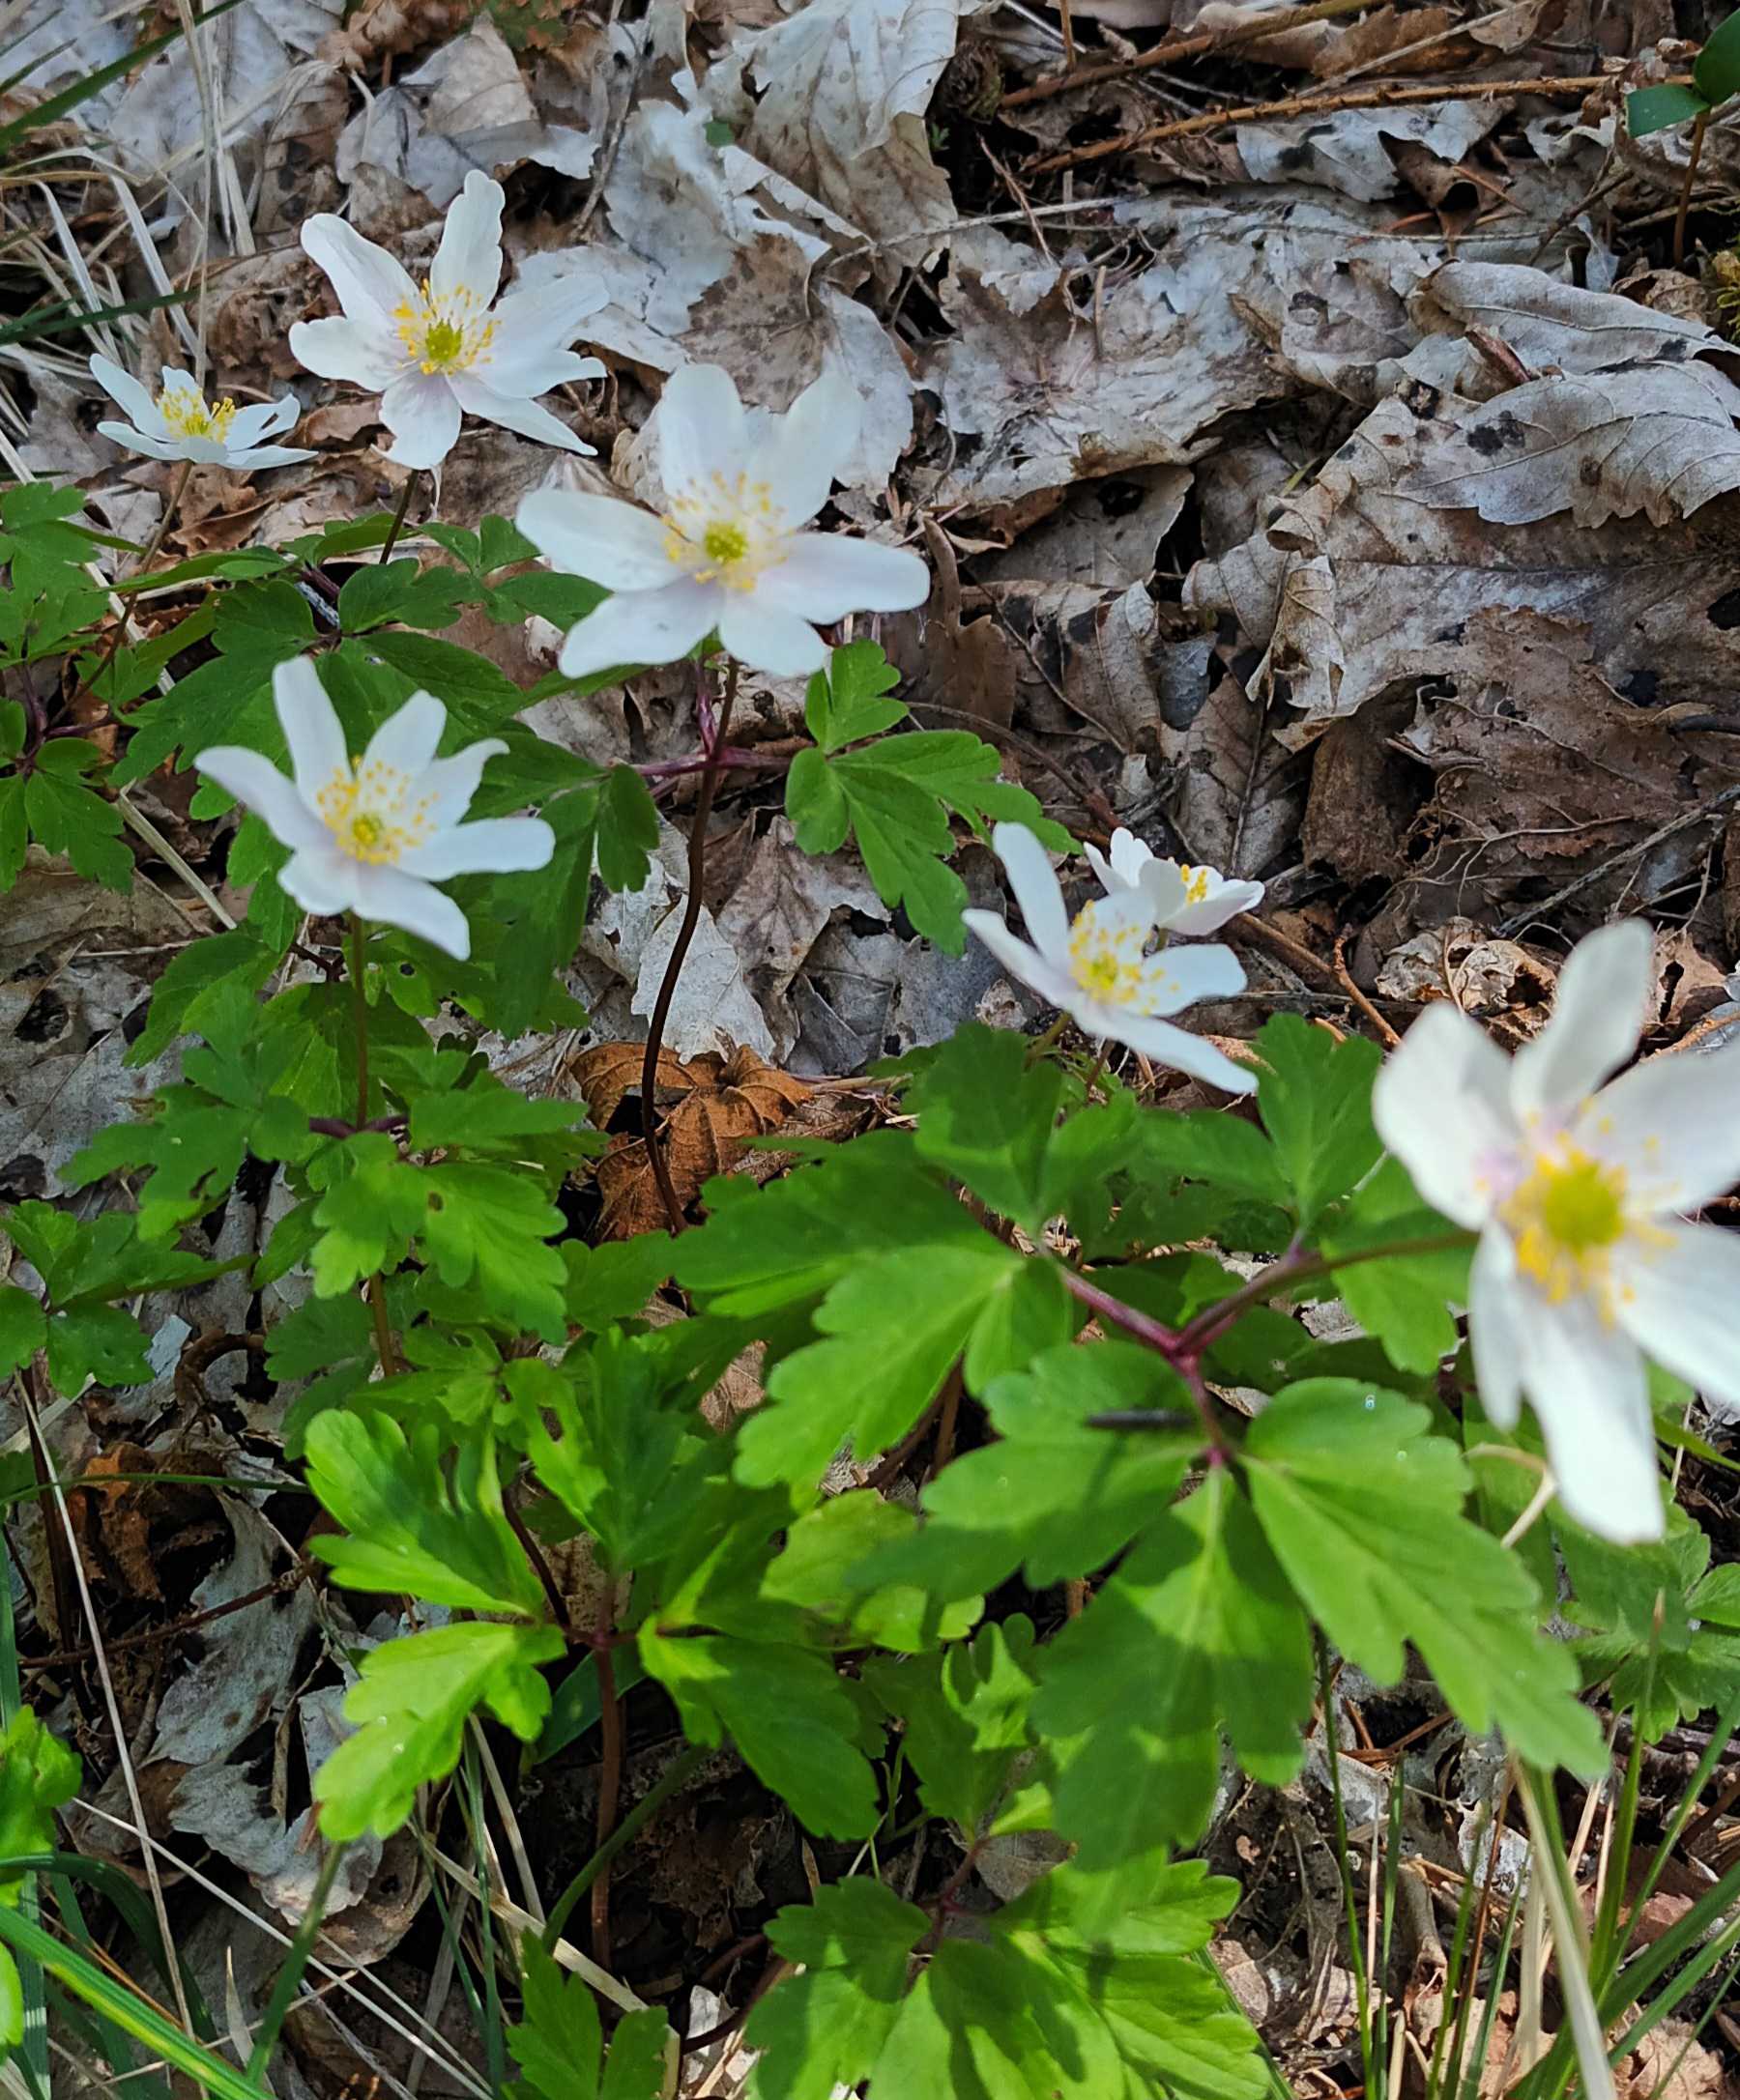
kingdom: Plantae
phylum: Tracheophyta
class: Magnoliopsida
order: Ranunculales
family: Ranunculaceae
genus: Anemone
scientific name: Anemone nemorosa
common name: Hvid anemone
